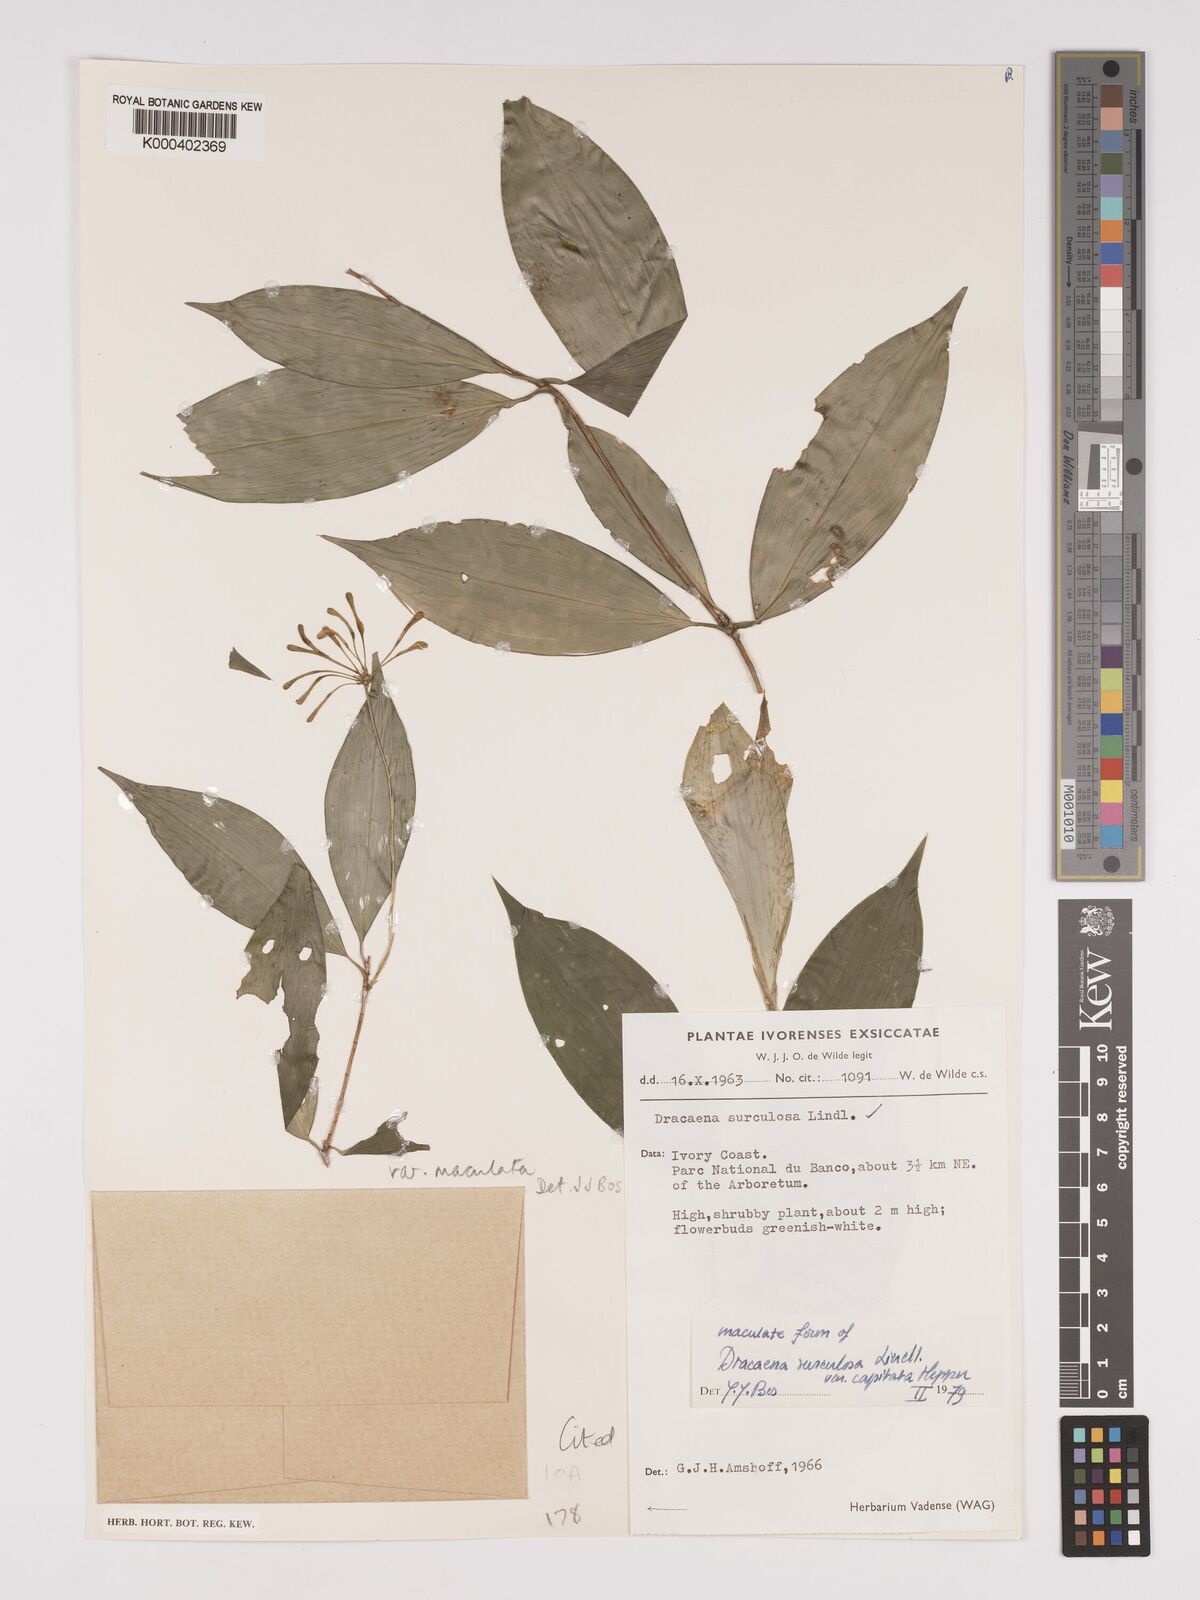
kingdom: Plantae
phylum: Tracheophyta
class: Liliopsida
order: Asparagales
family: Asparagaceae
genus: Dracaena
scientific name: Dracaena surculosa
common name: Spotted dracaena
